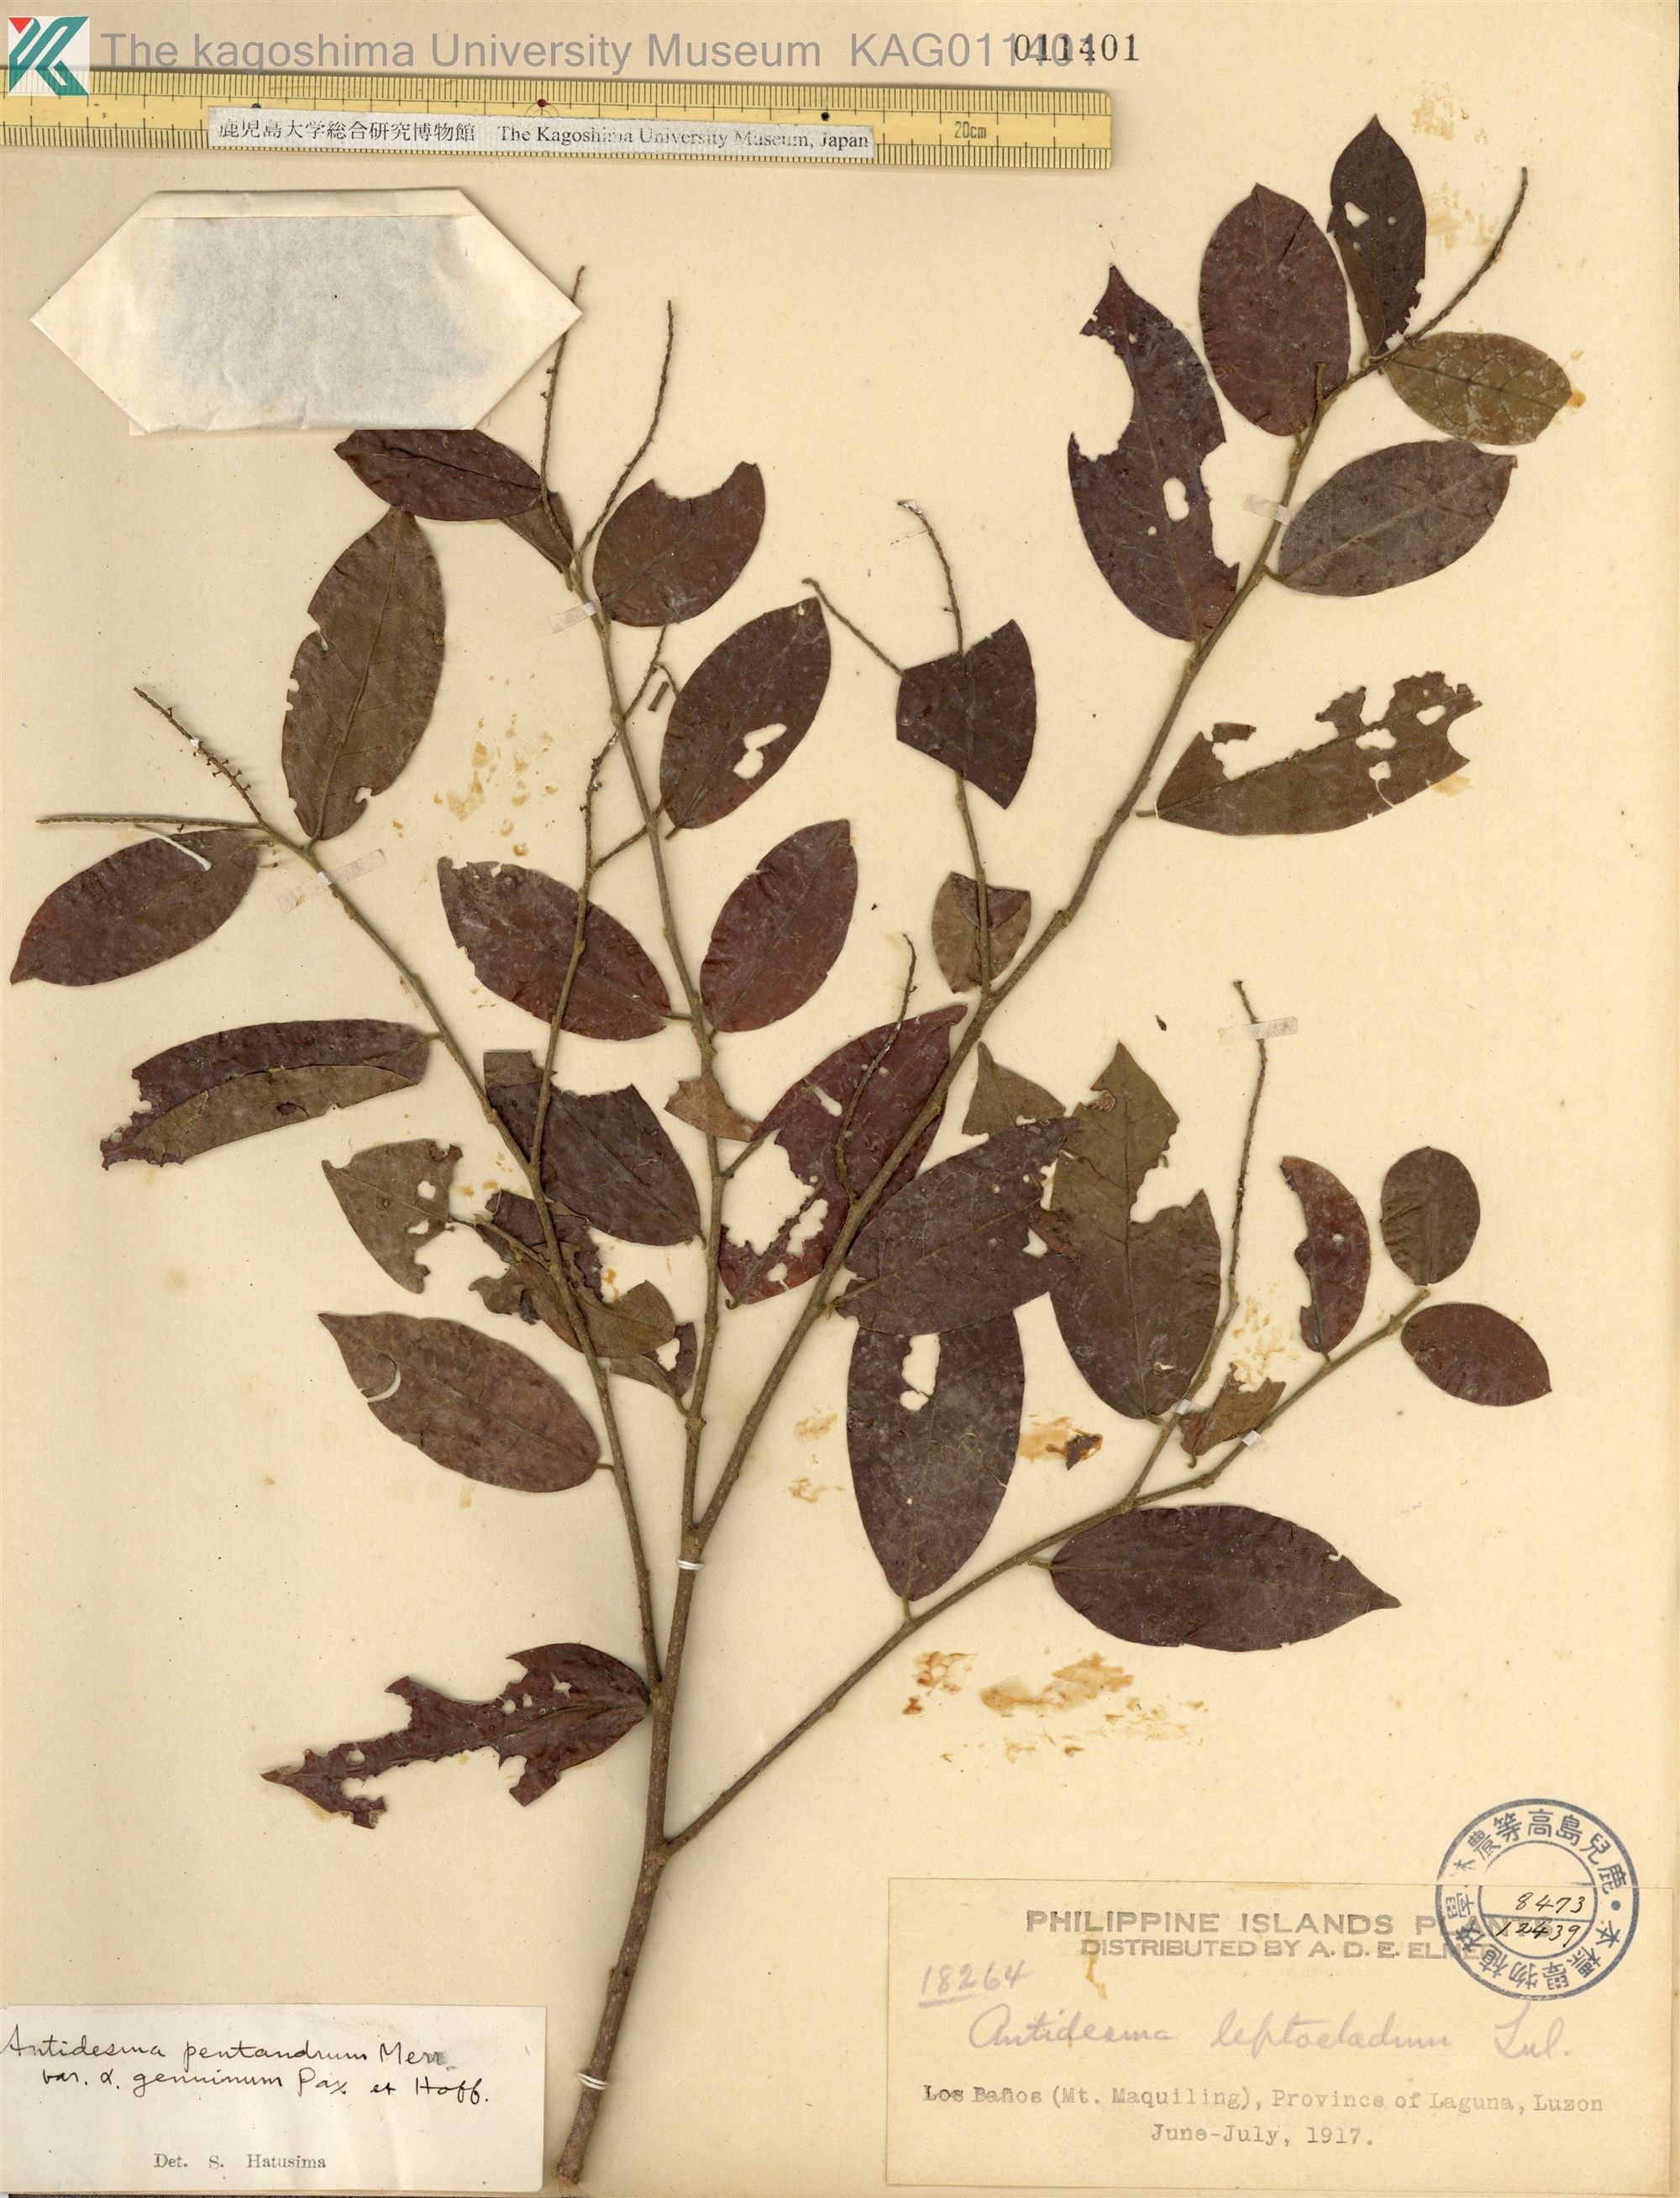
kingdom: Plantae
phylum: Tracheophyta
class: Magnoliopsida
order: Malpighiales
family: Phyllanthaceae
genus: Antidesma
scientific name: Antidesma montanum
